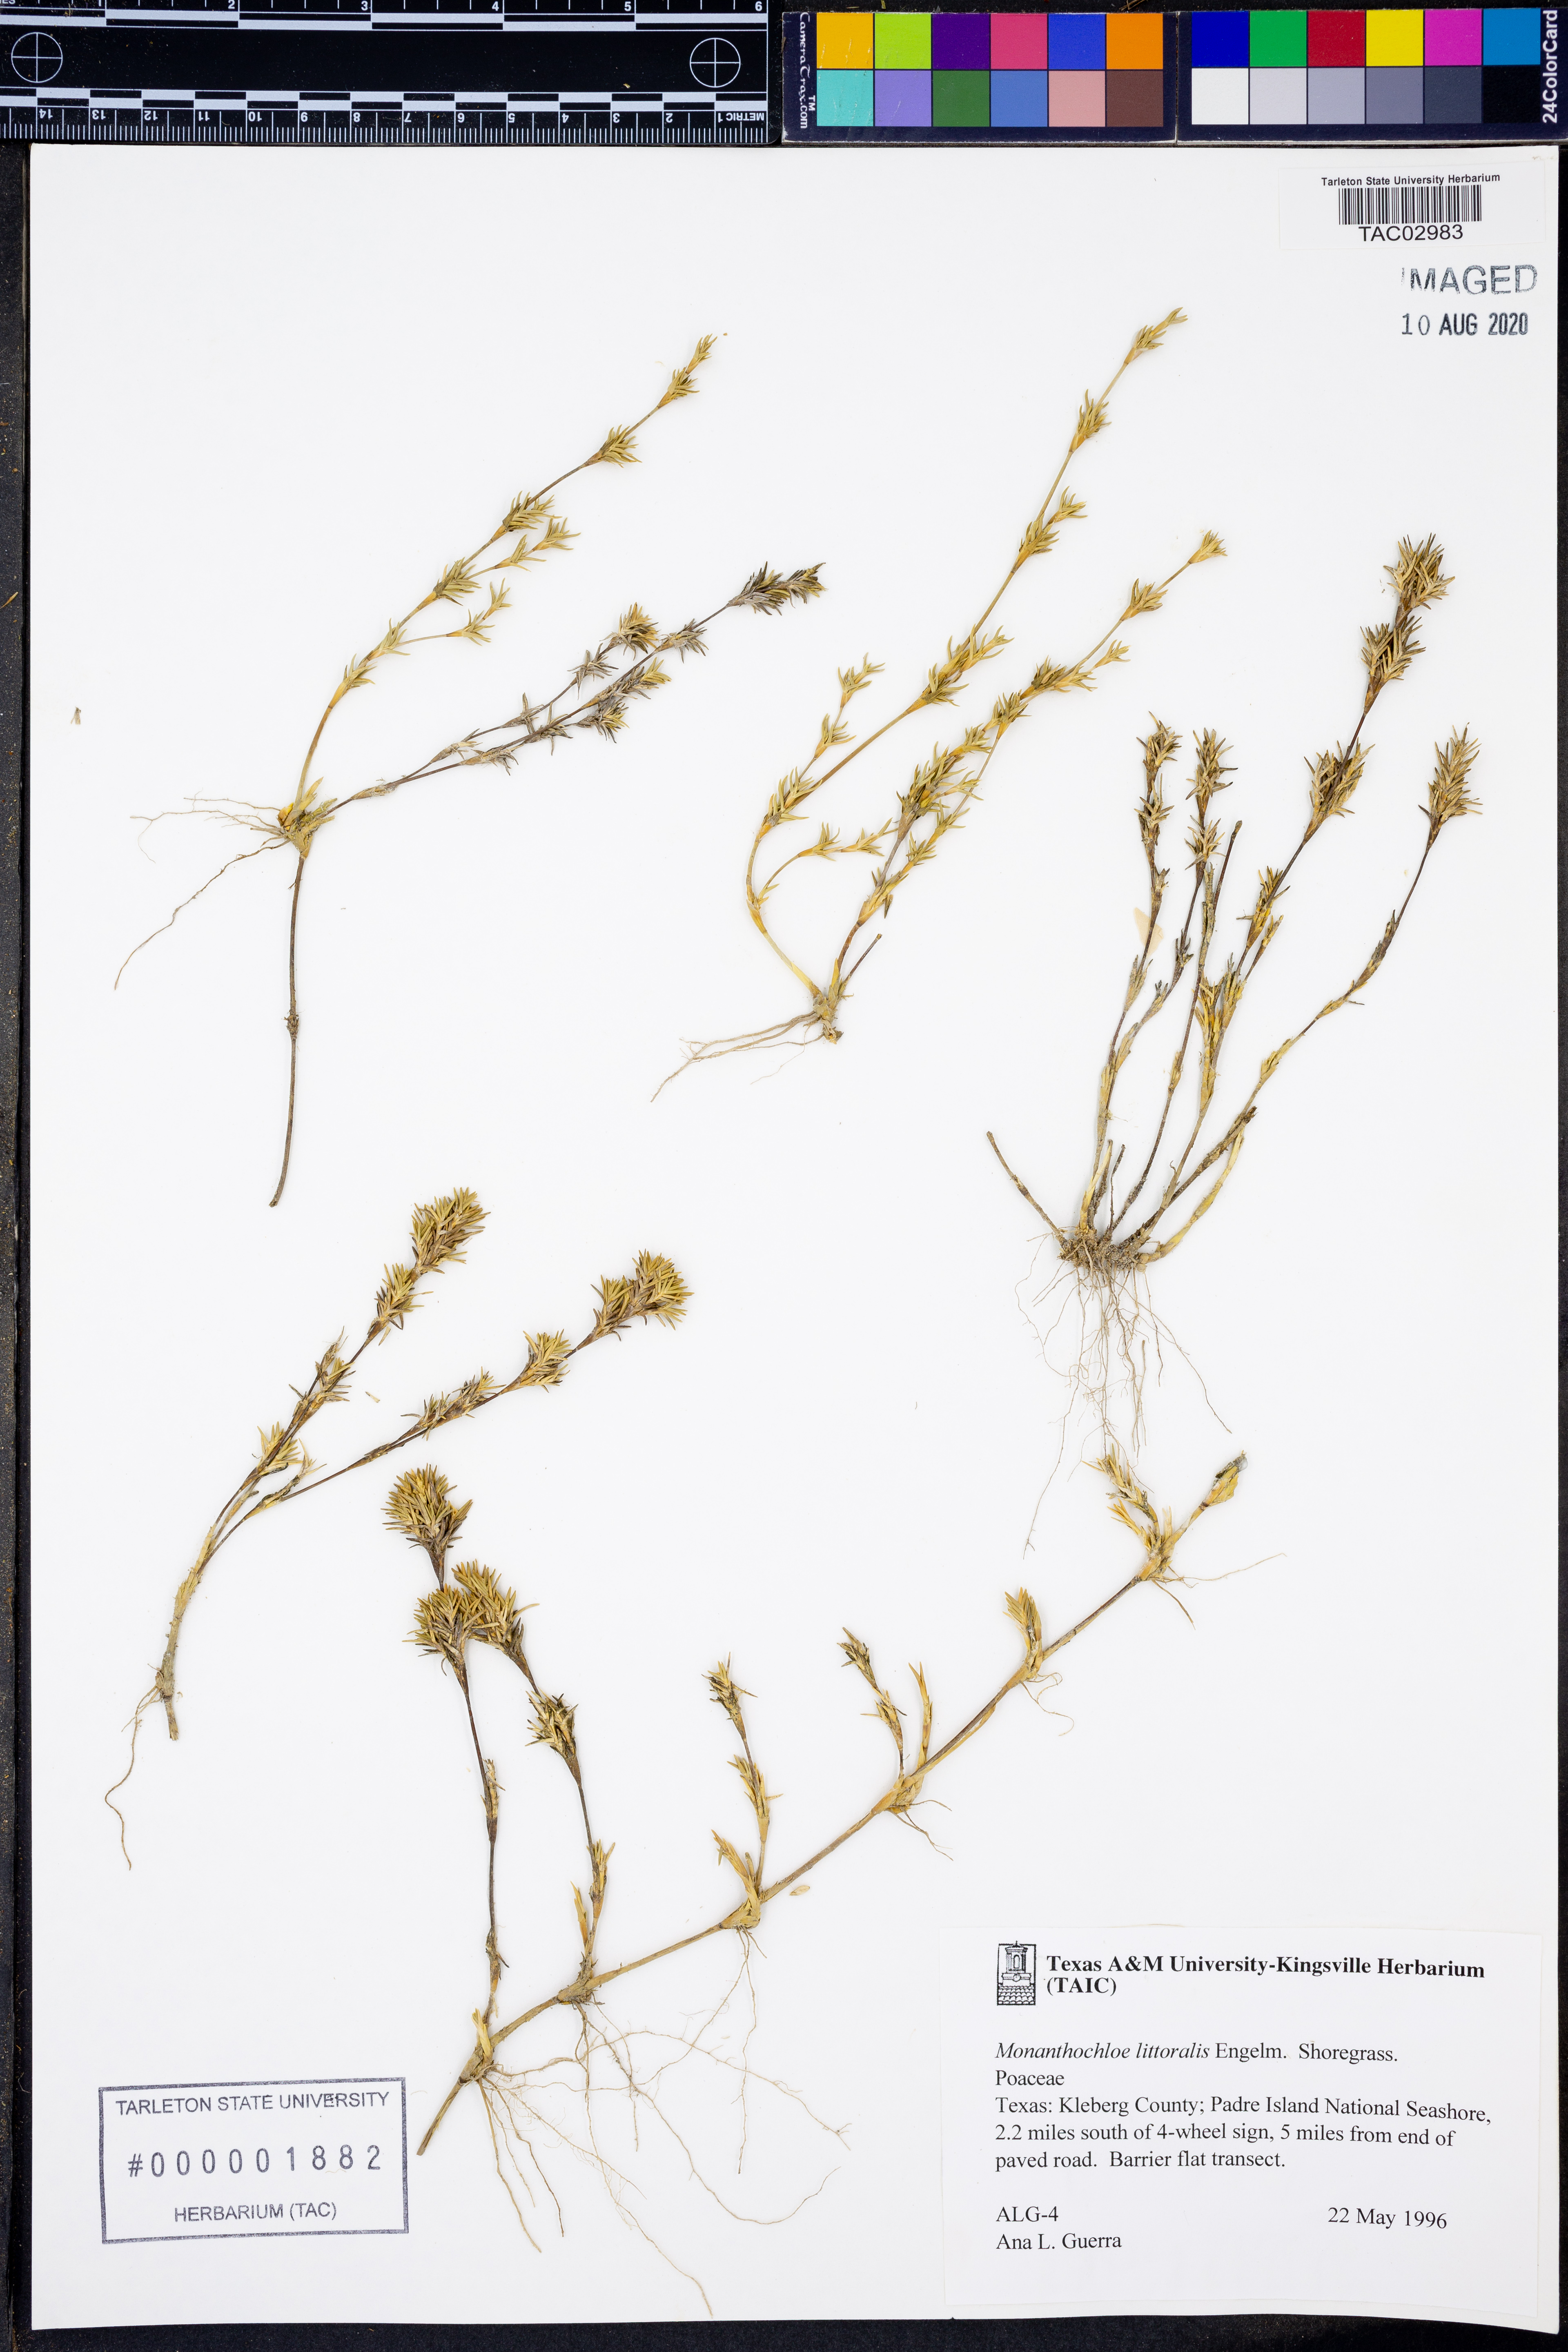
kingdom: Plantae
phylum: Tracheophyta
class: Liliopsida
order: Poales
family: Poaceae
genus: Distichlis
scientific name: Distichlis littoralis
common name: Shore grass
